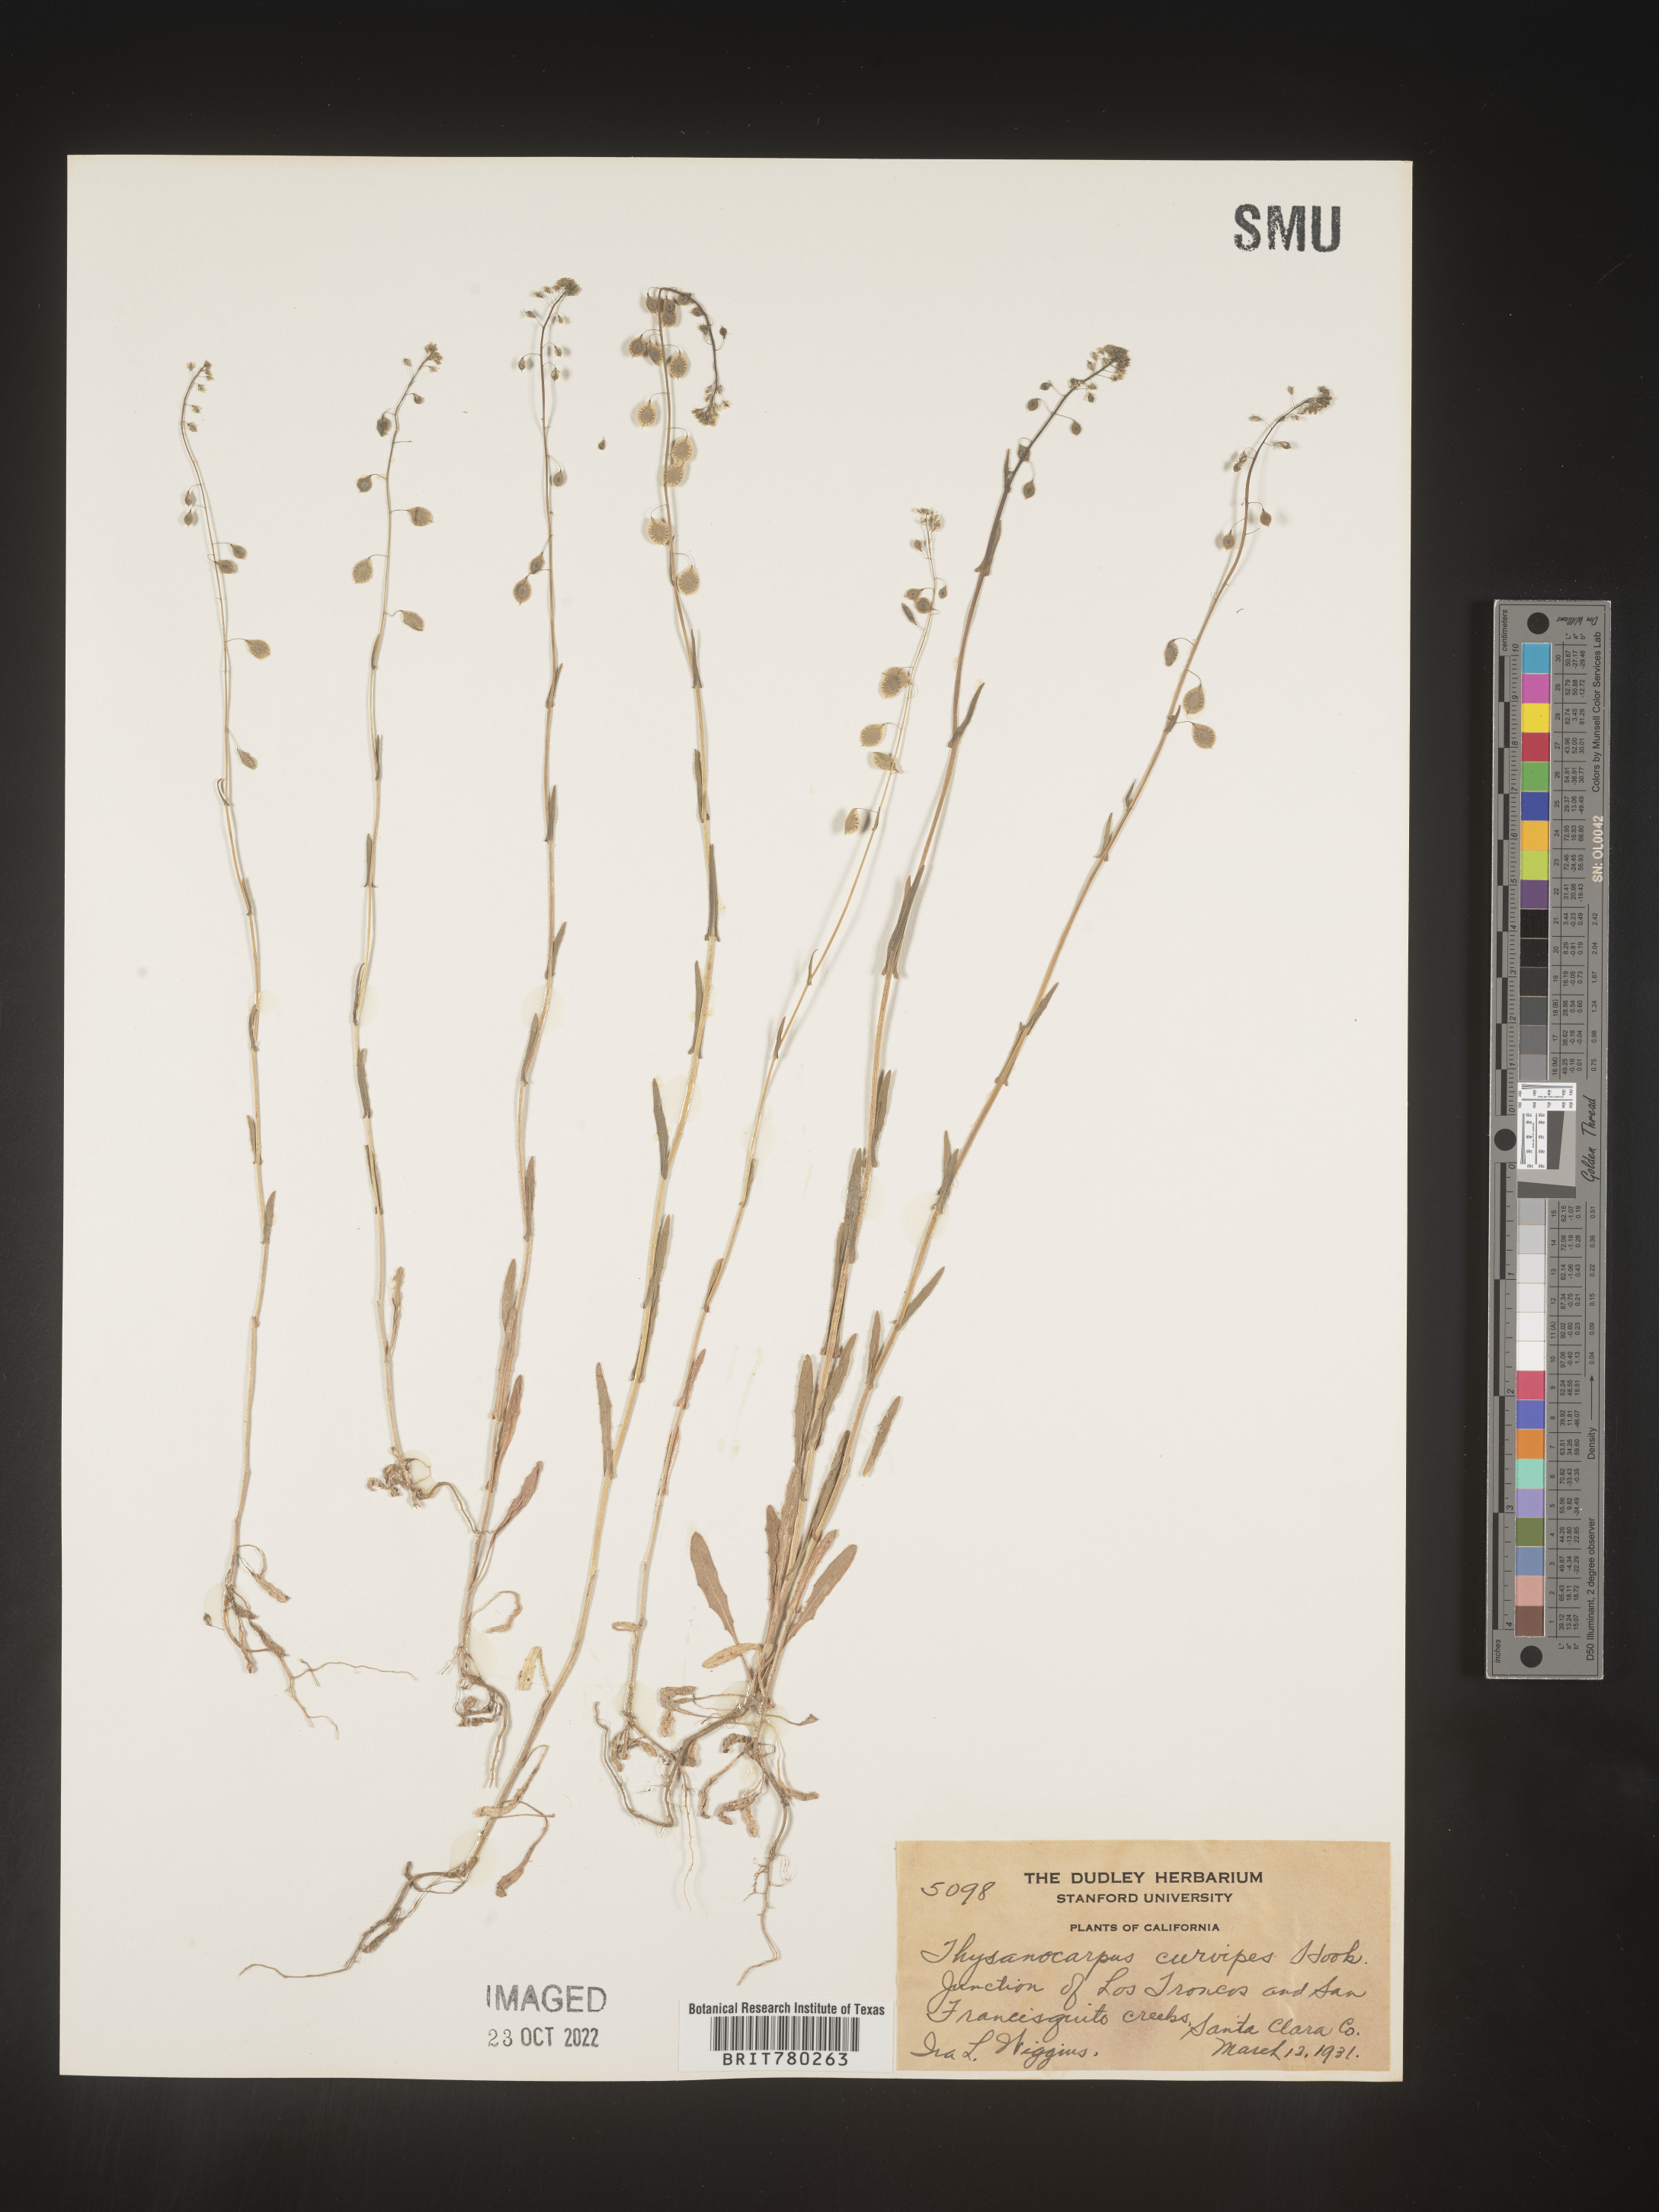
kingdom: Plantae
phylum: Tracheophyta
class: Magnoliopsida
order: Brassicales
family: Brassicaceae
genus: Thysanocarpus
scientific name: Thysanocarpus
